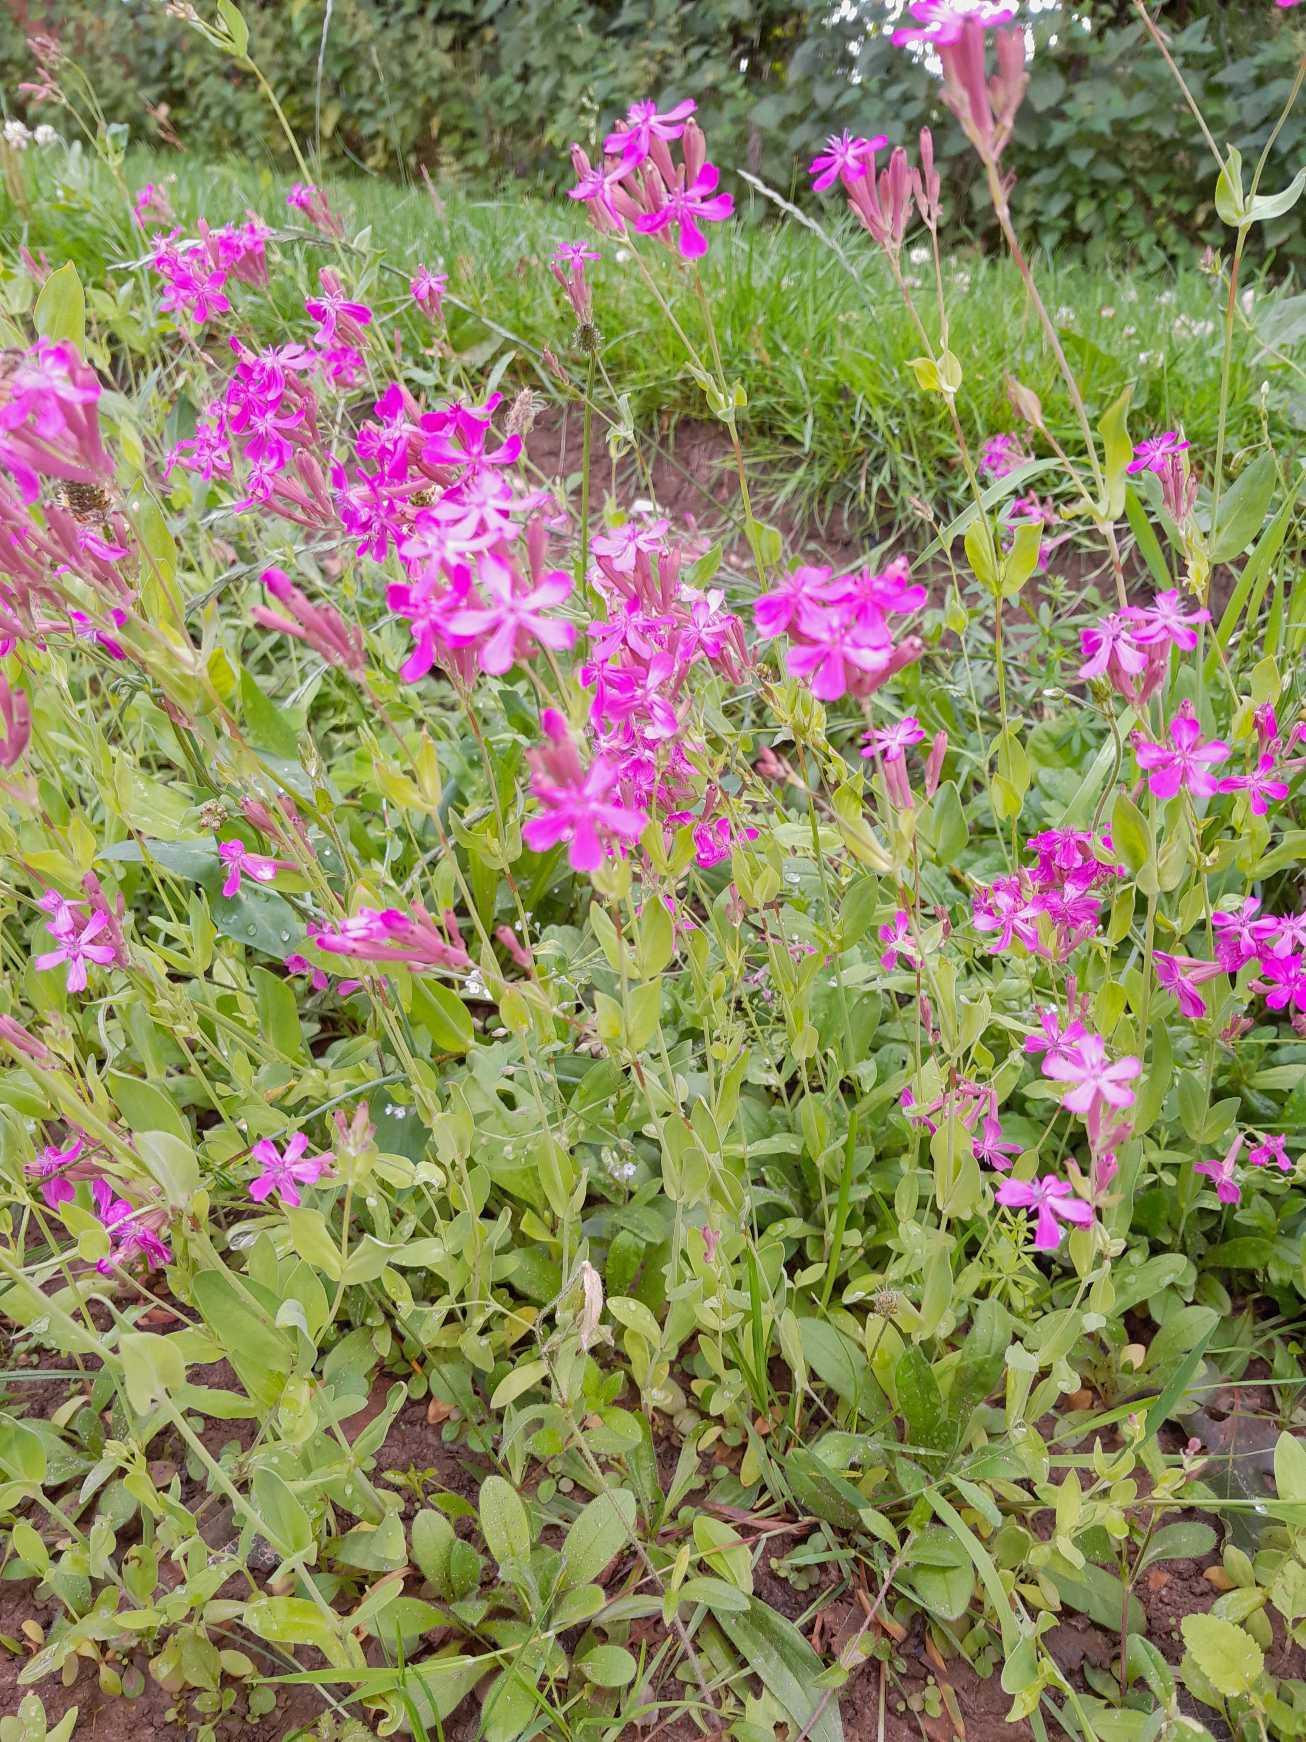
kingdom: Plantae
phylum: Tracheophyta
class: Magnoliopsida
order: Caryophyllales
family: Caryophyllaceae
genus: Atocion
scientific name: Atocion armeria
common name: Knippe-limurt
